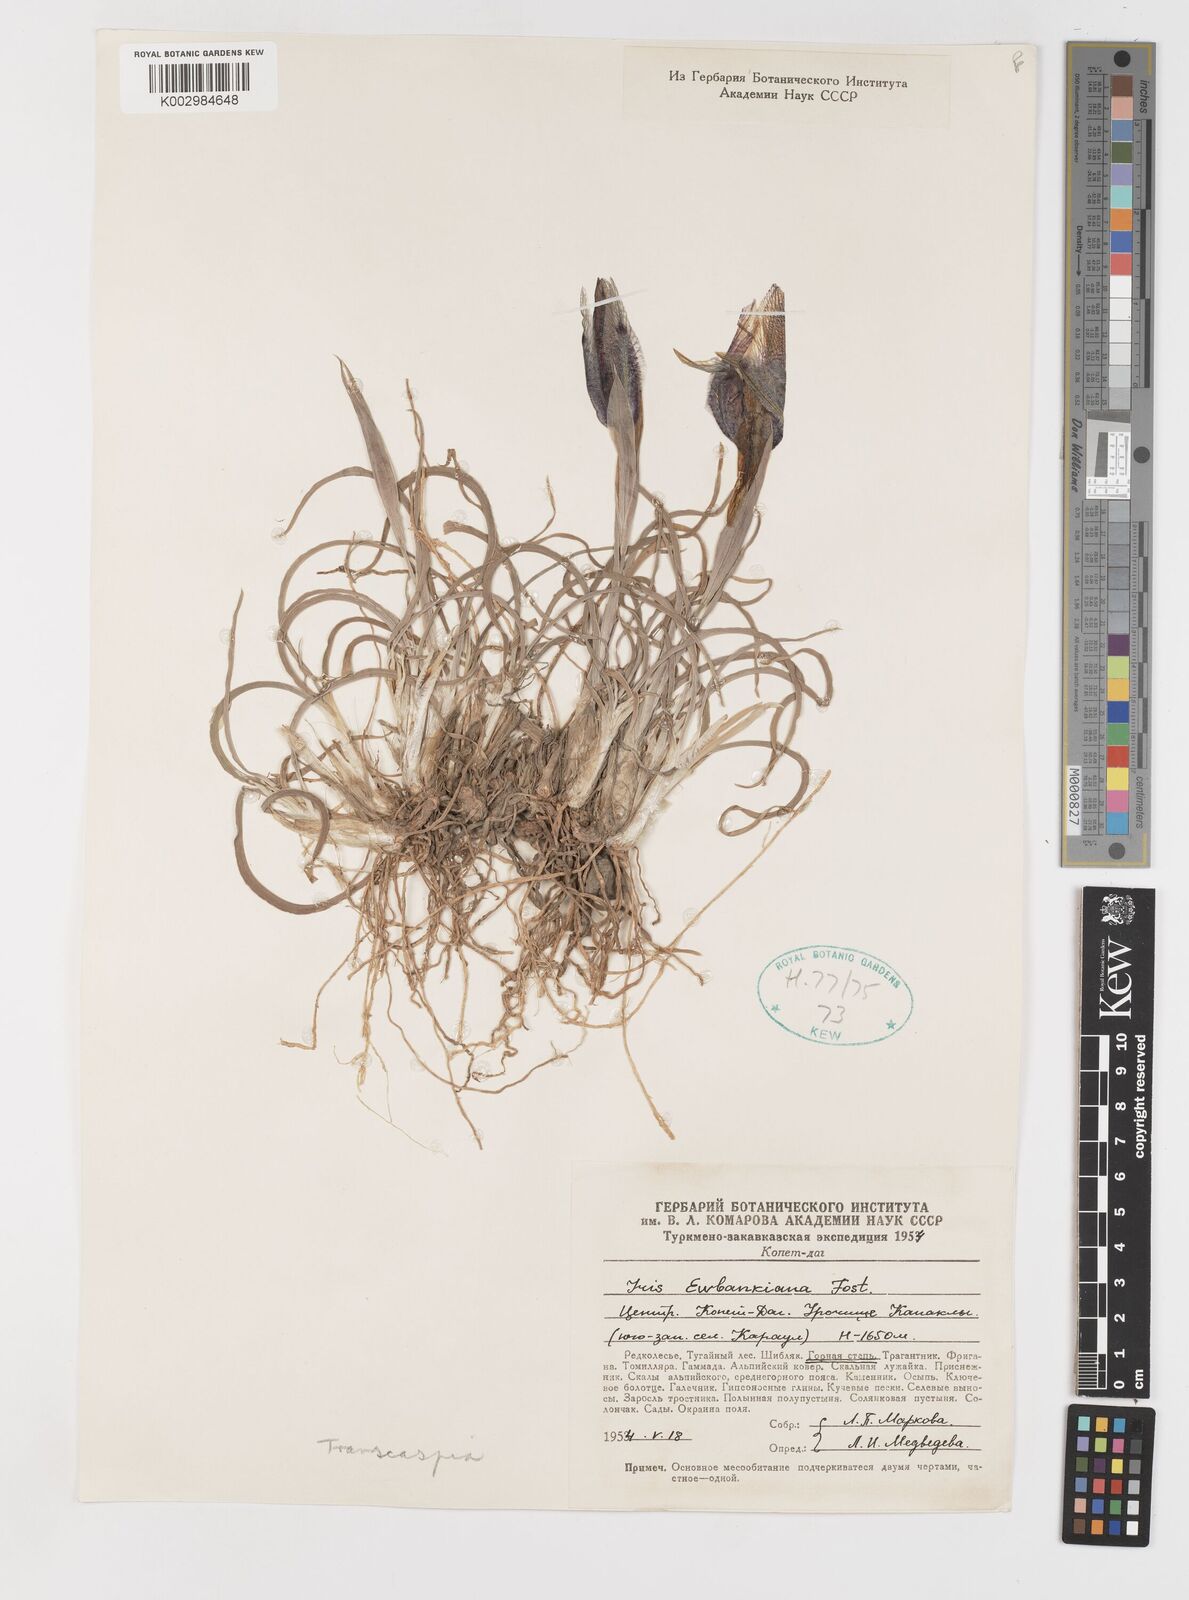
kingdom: Plantae
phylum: Tracheophyta
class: Liliopsida
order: Asparagales
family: Iridaceae
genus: Iris
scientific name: Iris acutiloba
